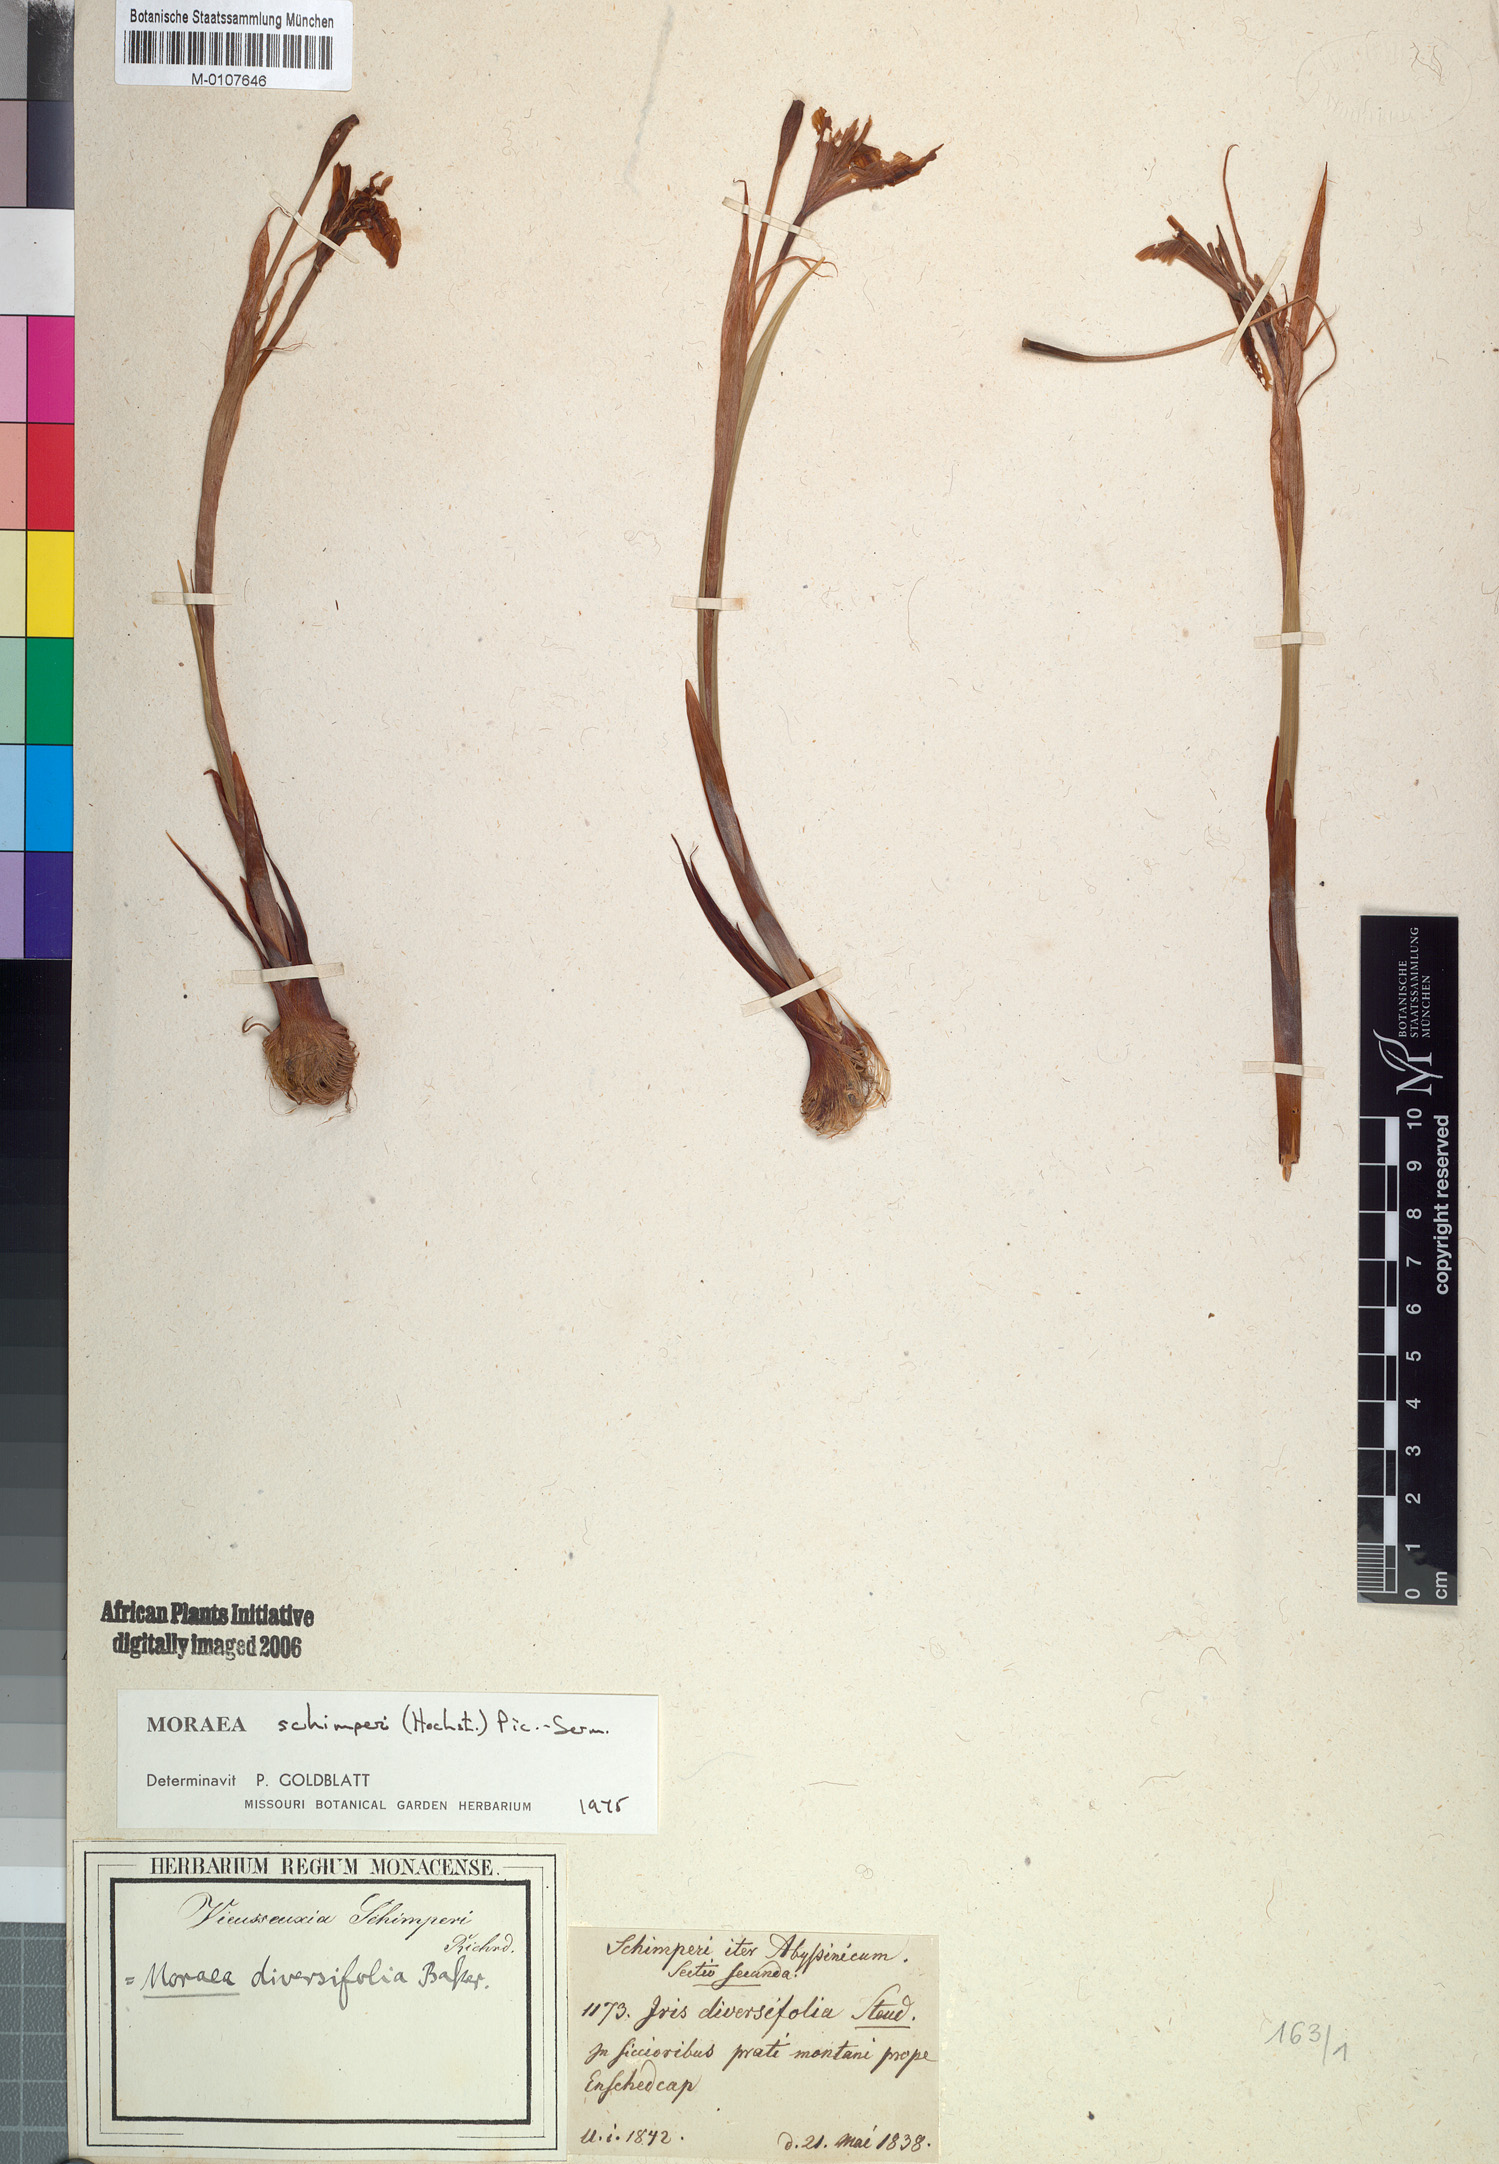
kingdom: Plantae
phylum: Tracheophyta
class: Liliopsida
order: Asparagales
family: Iridaceae
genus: Moraea
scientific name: Moraea schimperi
